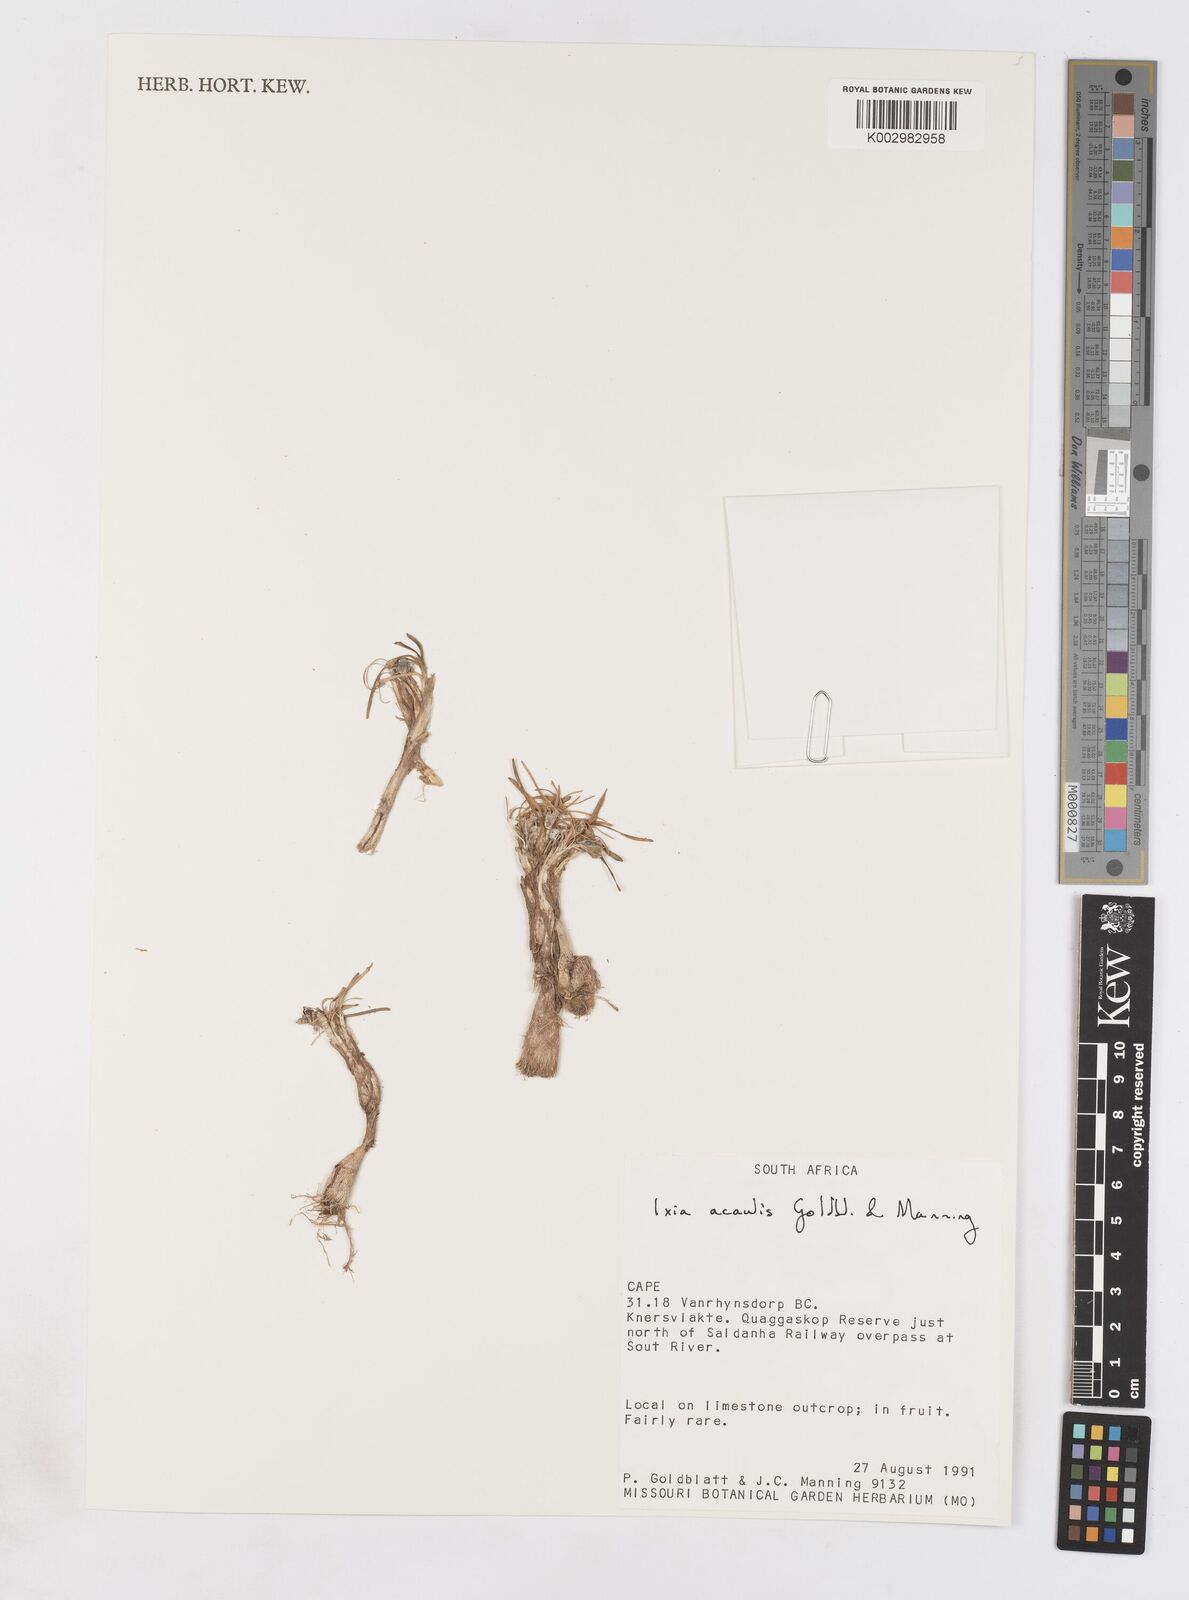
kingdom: Plantae
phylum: Tracheophyta
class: Liliopsida
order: Asparagales
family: Iridaceae
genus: Ixia
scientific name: Ixia acaulis
